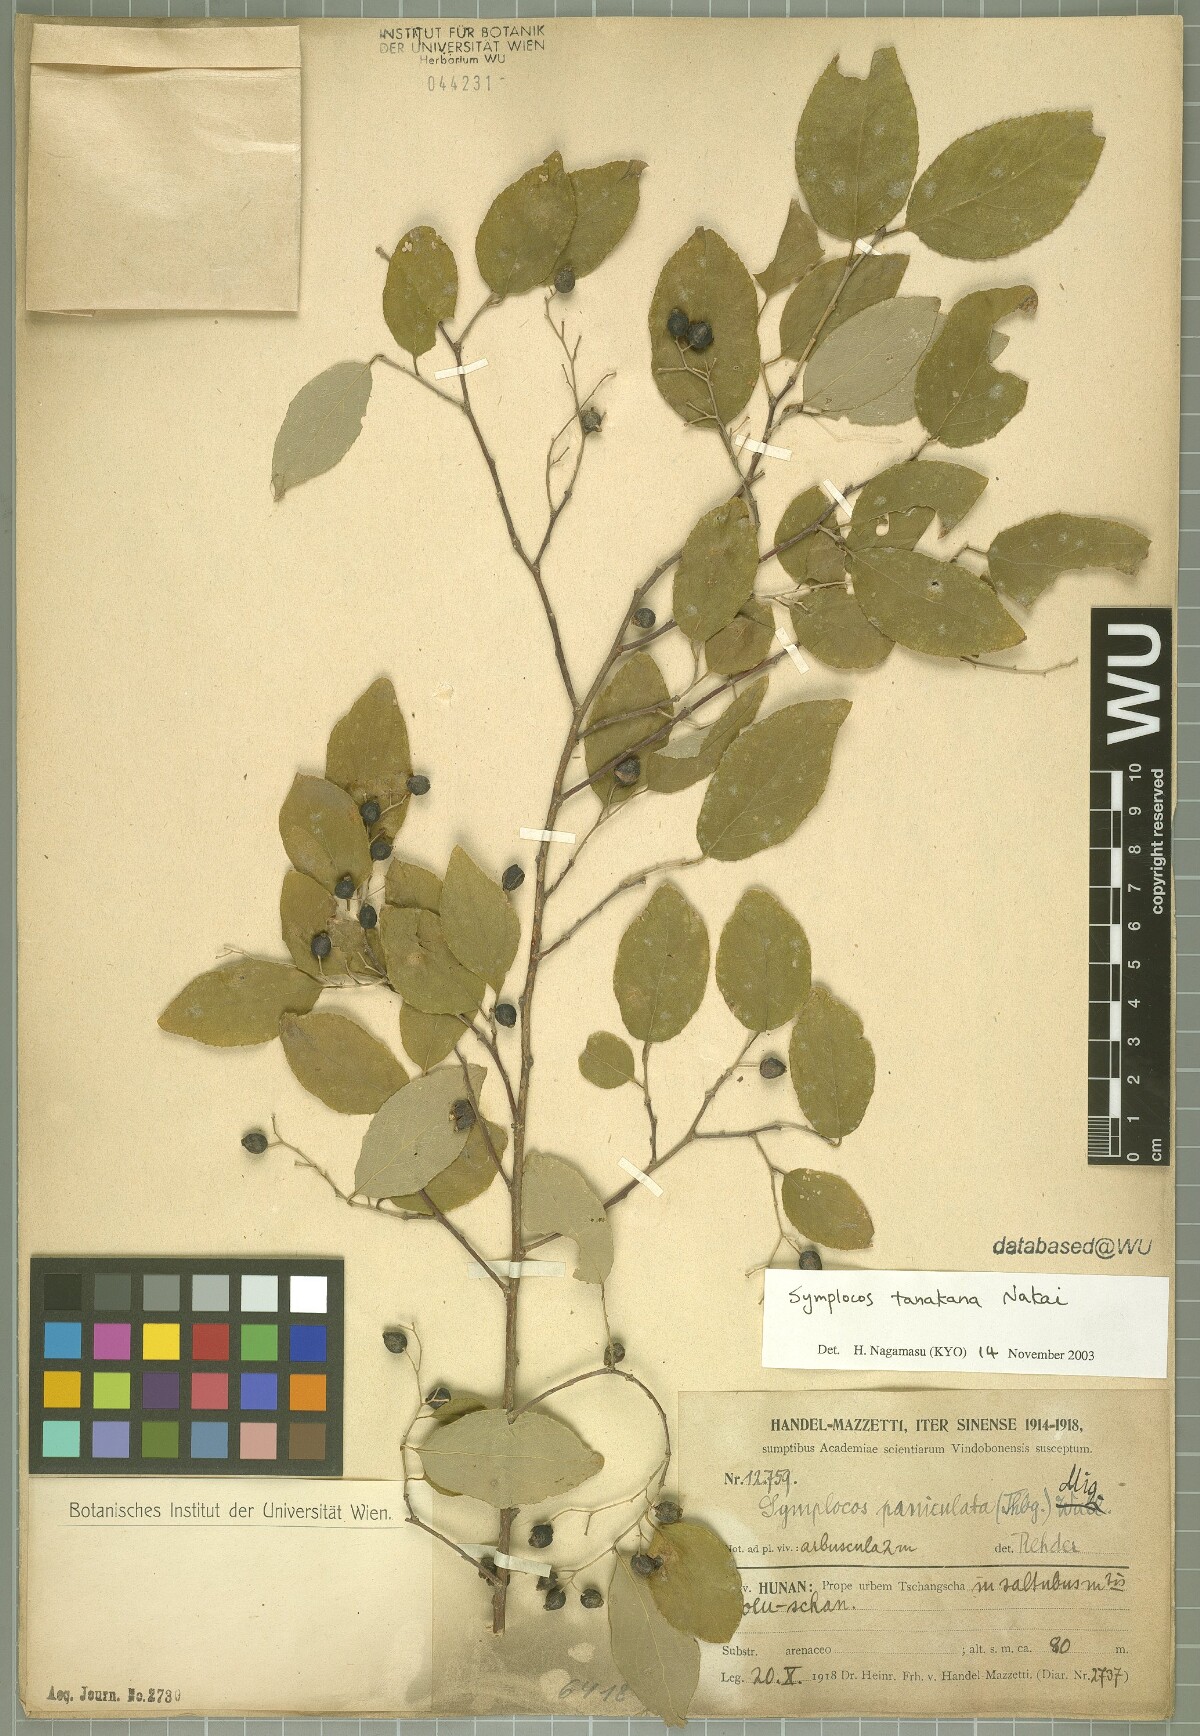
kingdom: Plantae
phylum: Tracheophyta
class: Magnoliopsida
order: Ericales
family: Symplocaceae
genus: Symplocos
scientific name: Symplocos tanakana
